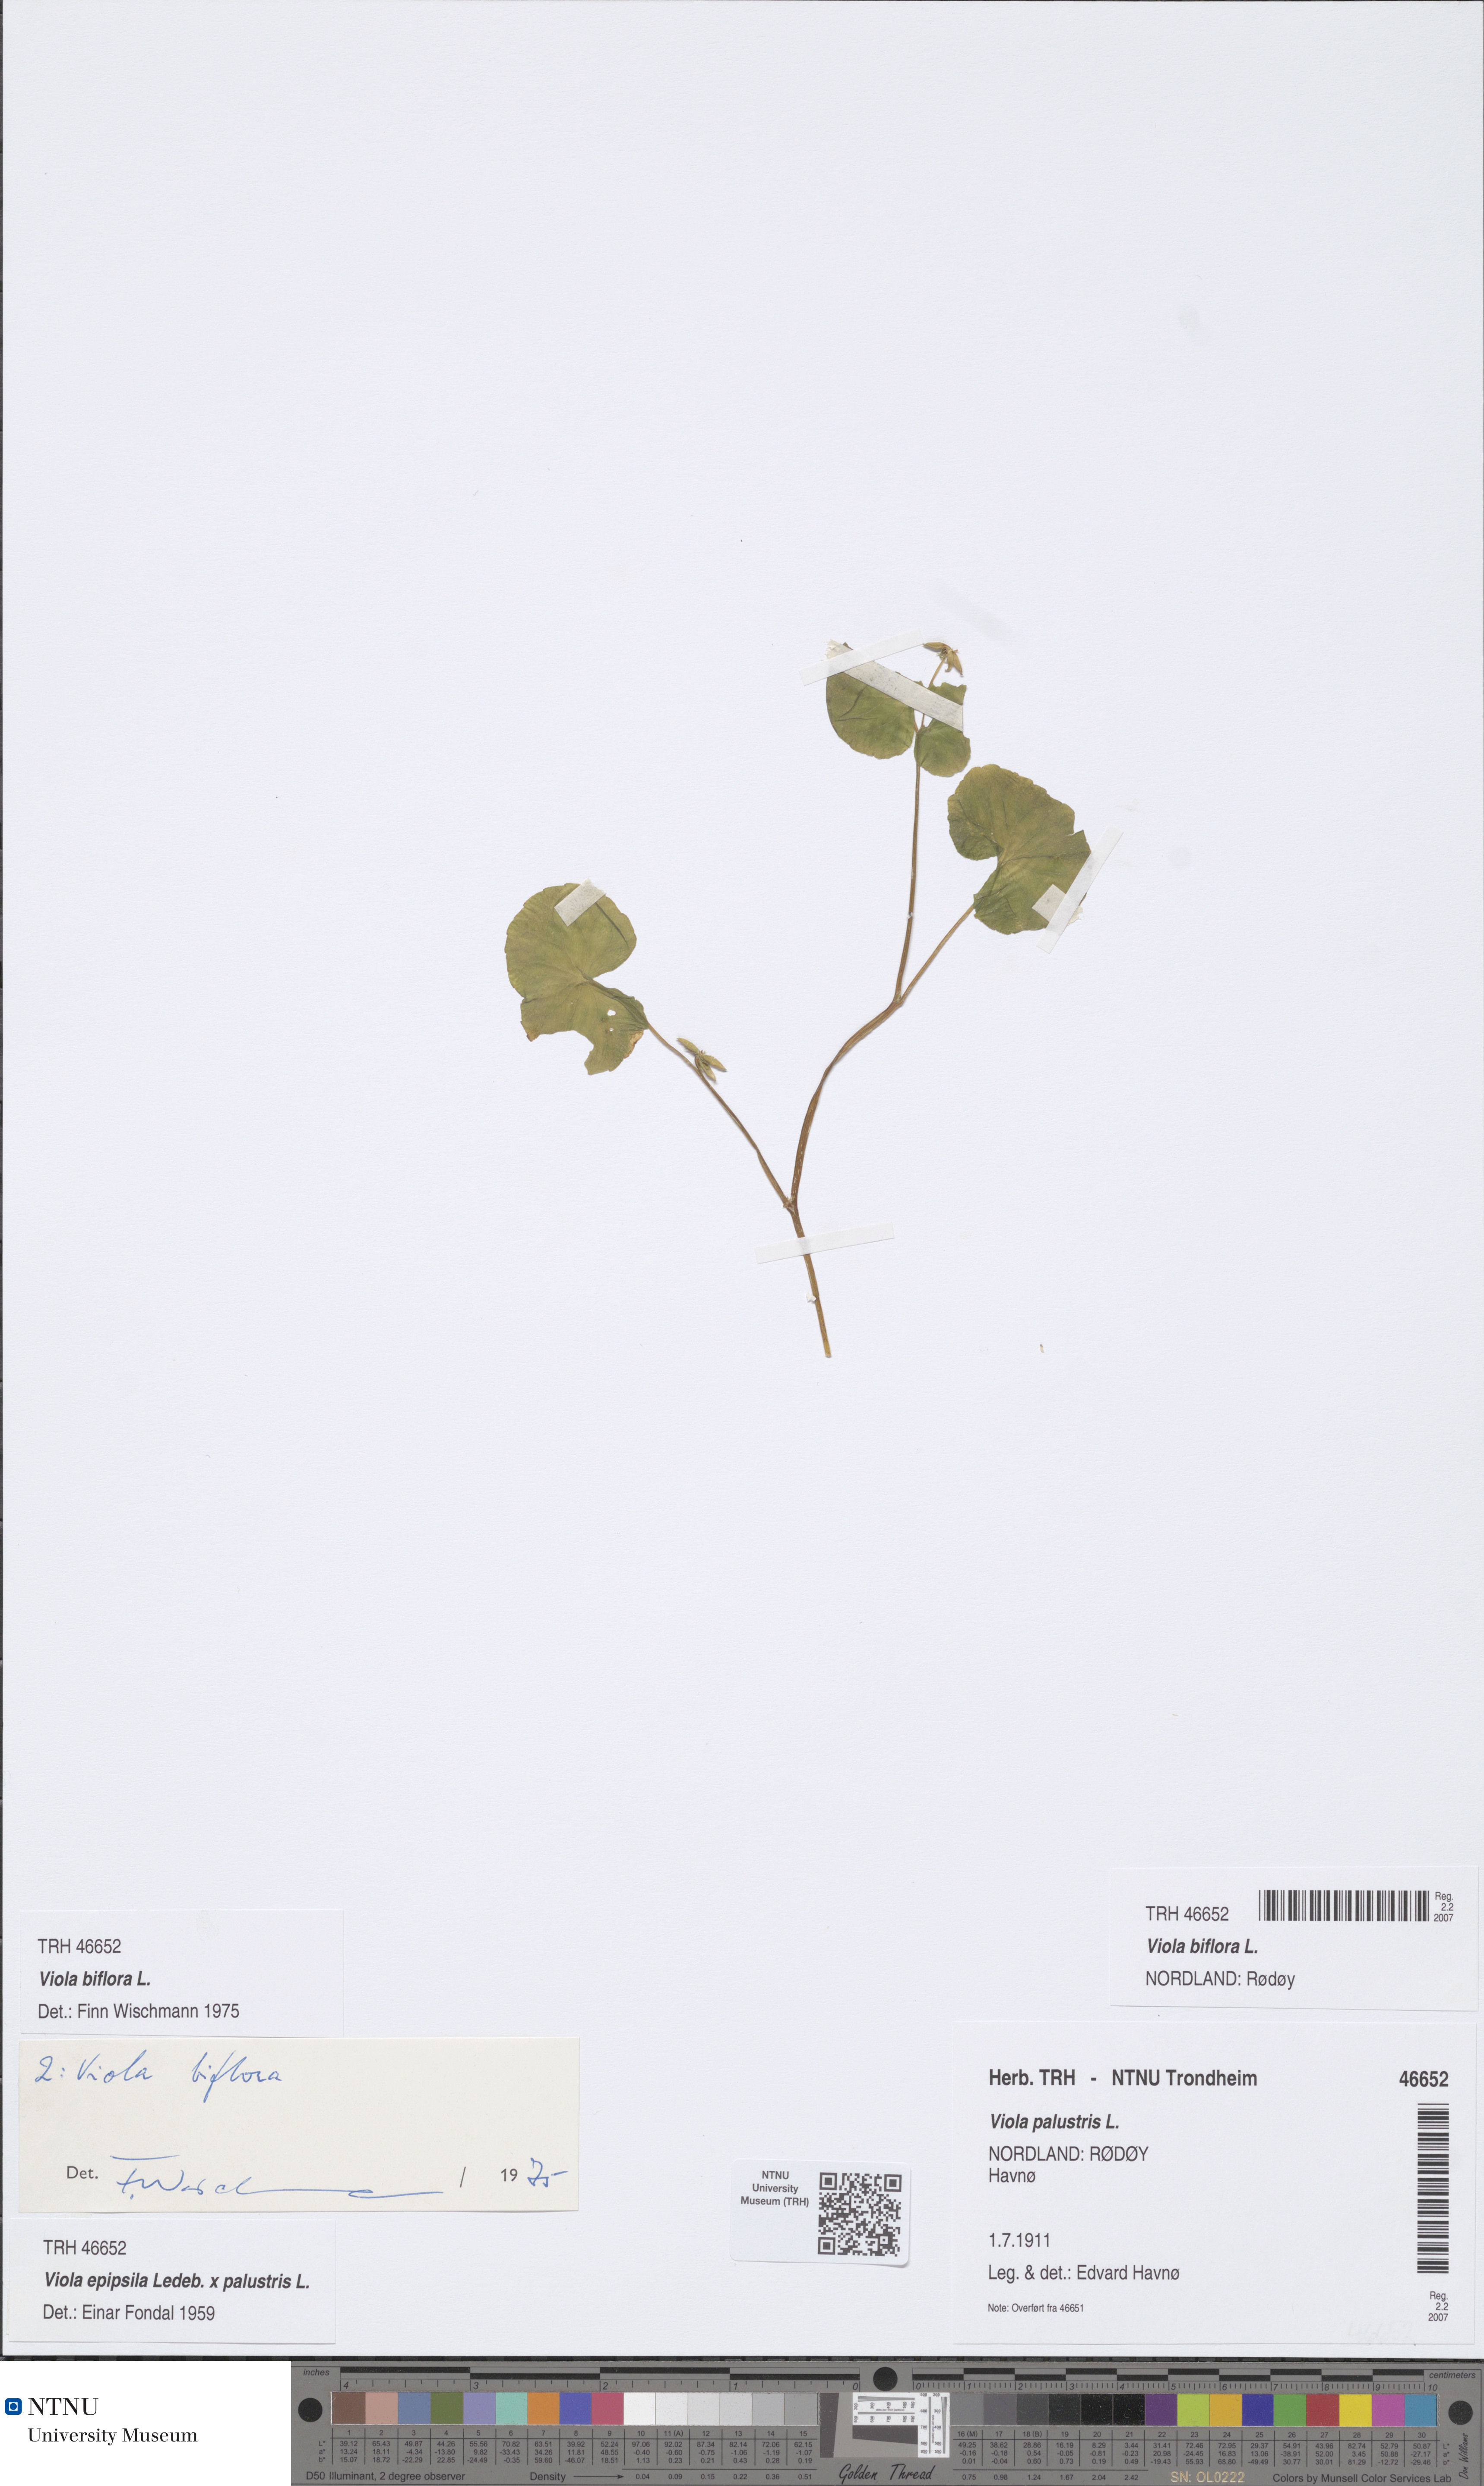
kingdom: Plantae
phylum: Tracheophyta
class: Magnoliopsida
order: Malpighiales
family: Violaceae
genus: Viola
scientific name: Viola biflora
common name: Alpine yellow violet
